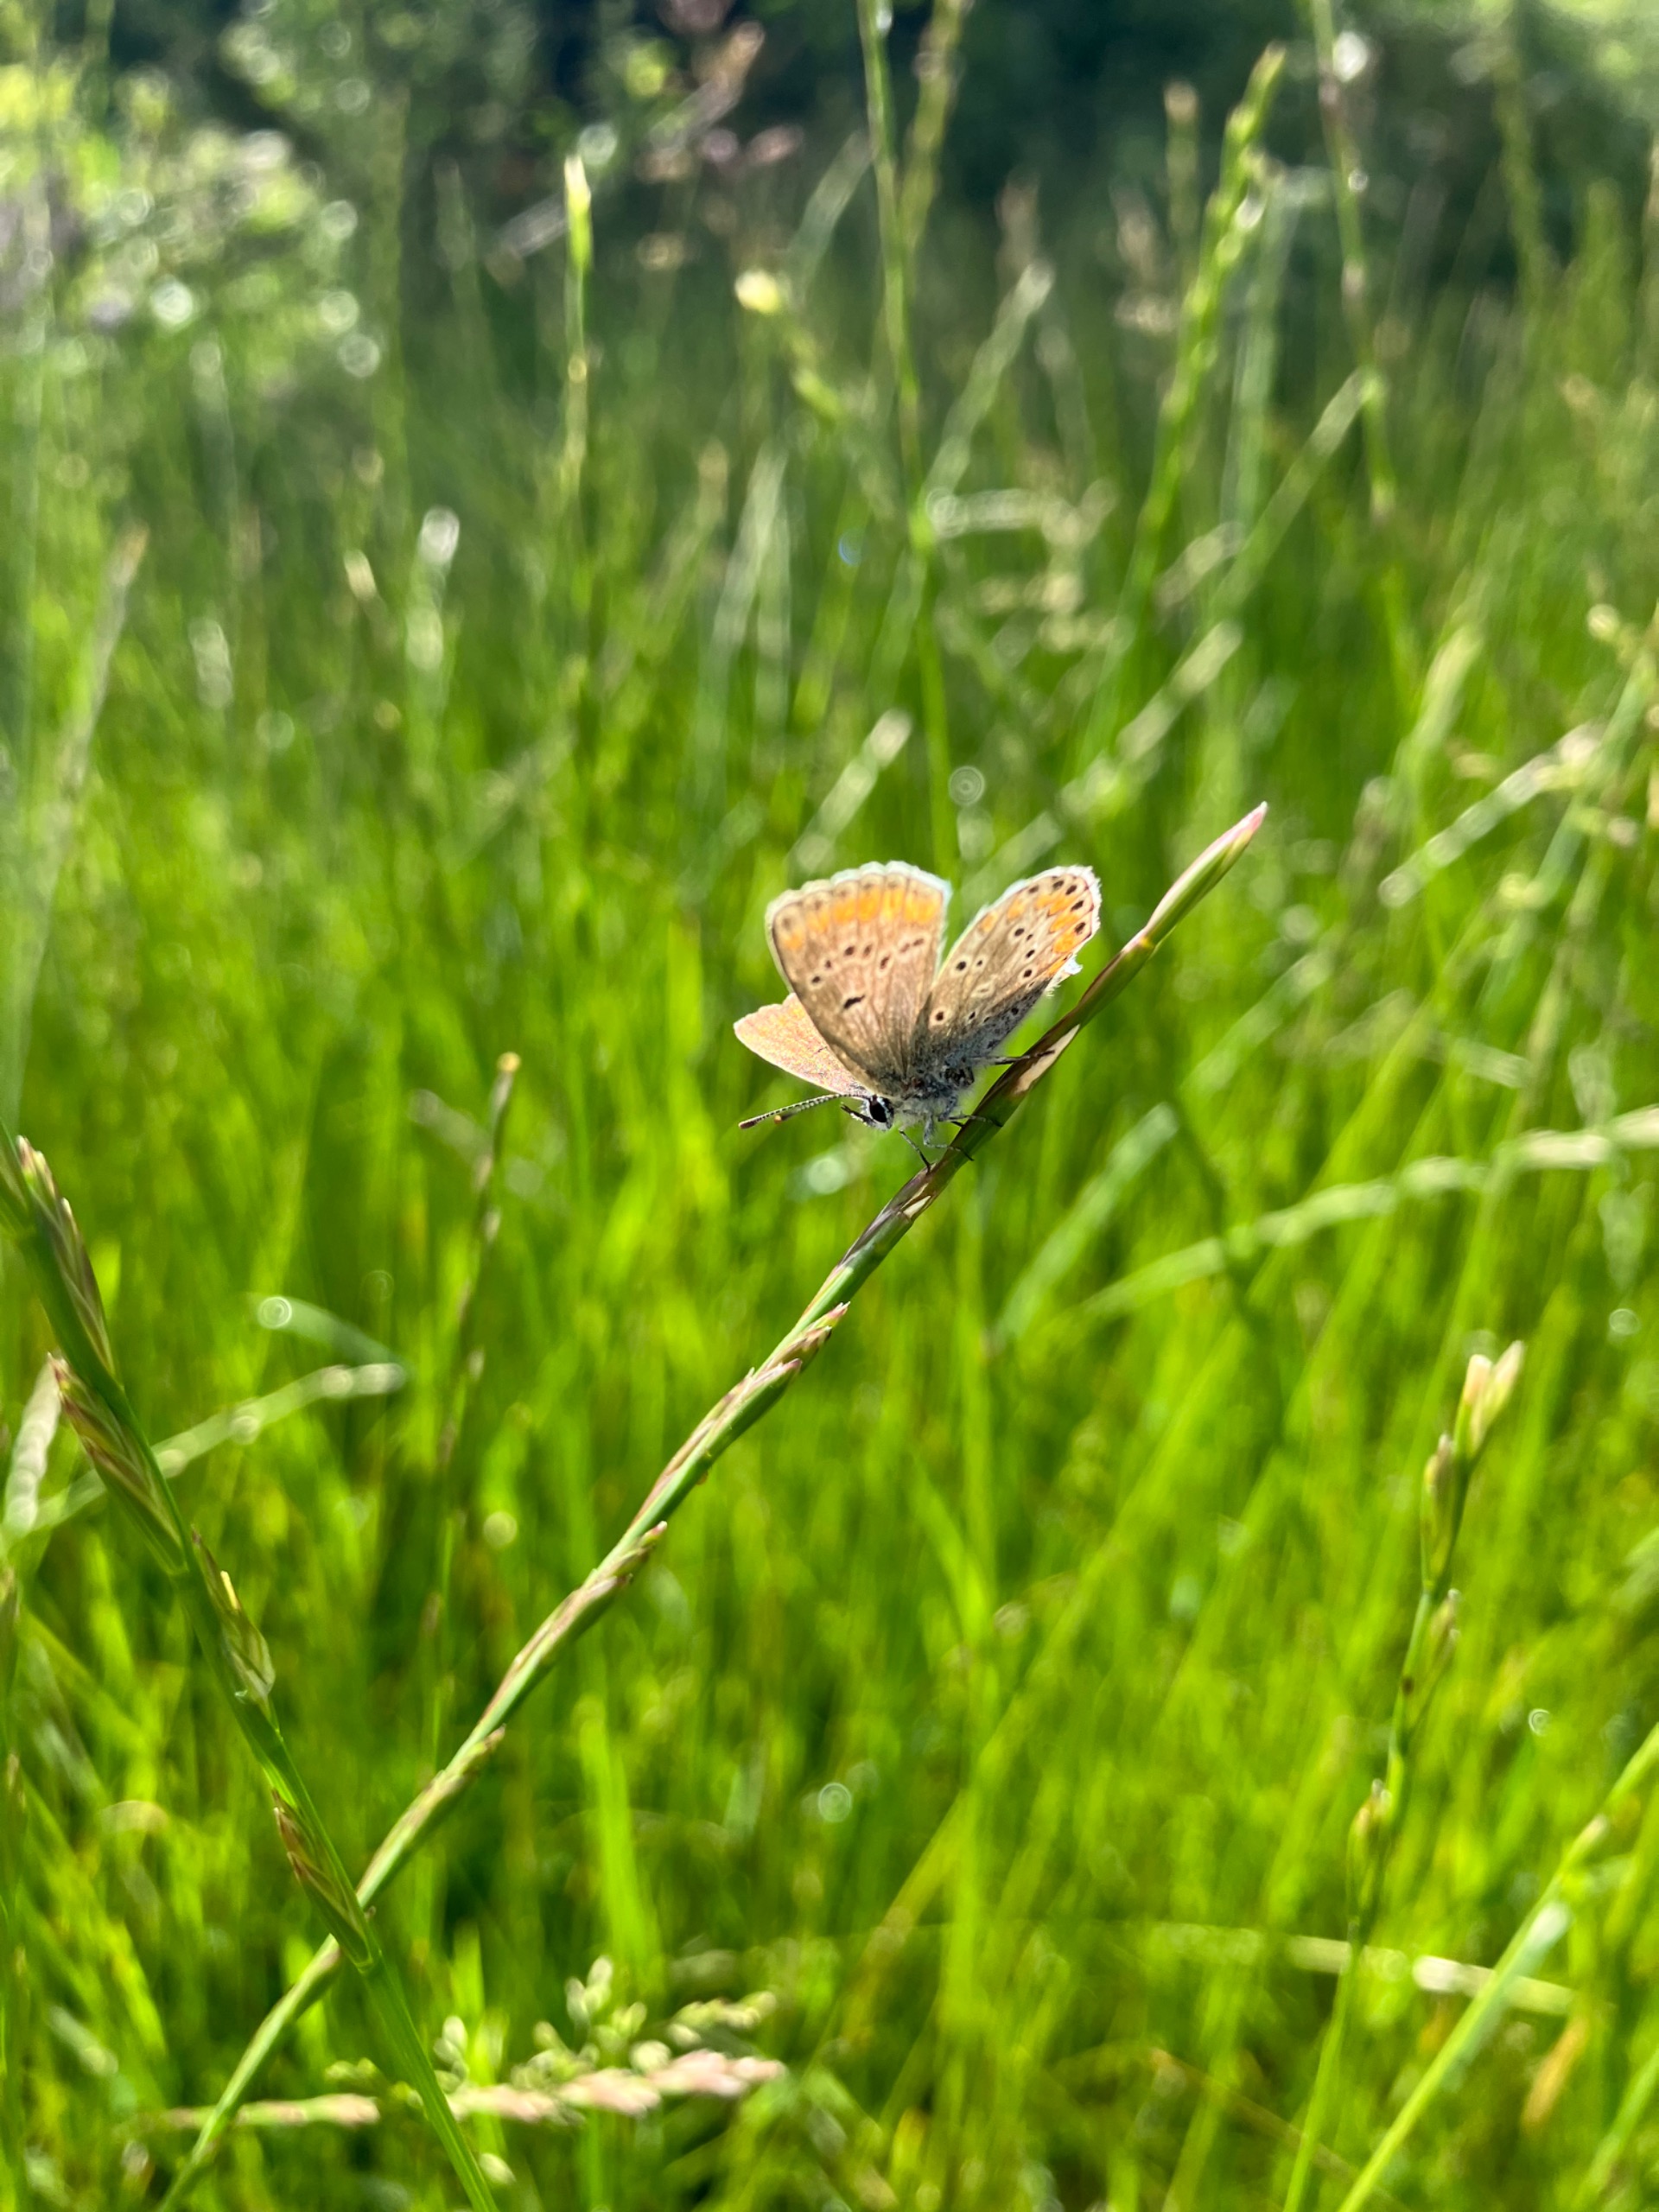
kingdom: Animalia
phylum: Arthropoda
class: Insecta
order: Lepidoptera
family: Lycaenidae
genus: Aricia
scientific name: Aricia agestis
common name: Rødplettet blåfugl
